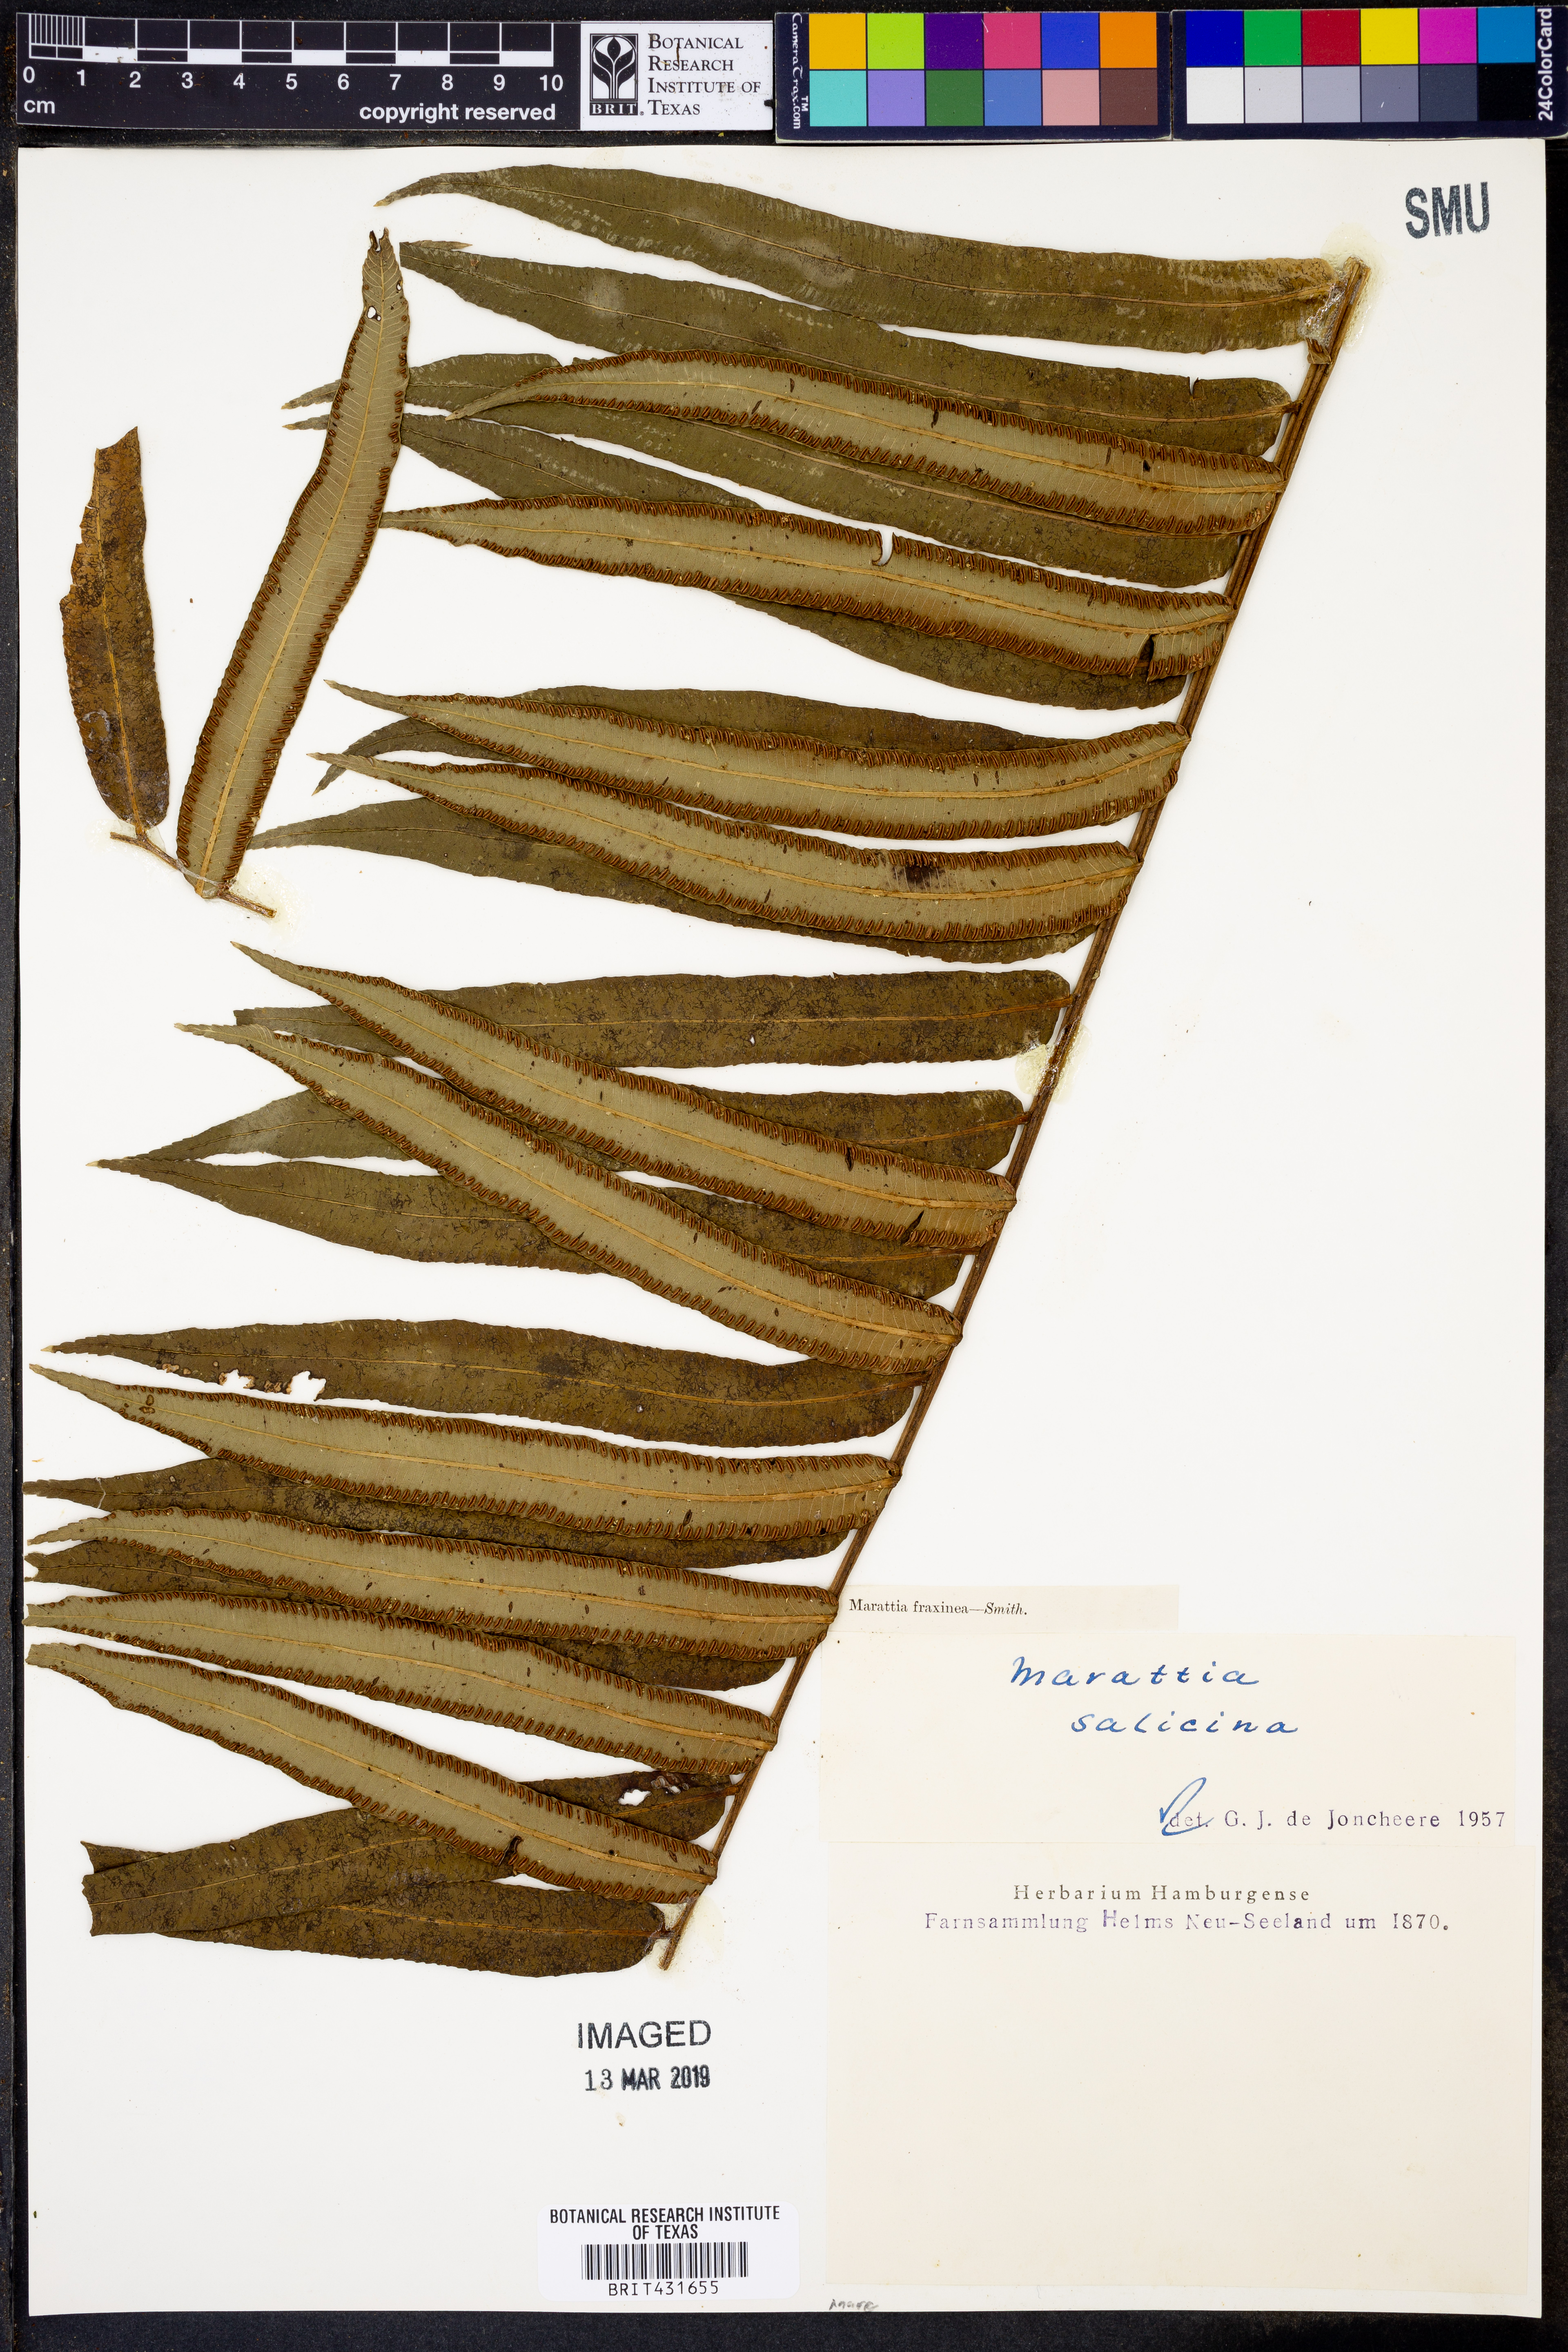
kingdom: Plantae
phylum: Tracheophyta
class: Polypodiopsida
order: Marattiales
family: Marattiaceae
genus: Ptisana
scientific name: Ptisana salicina
